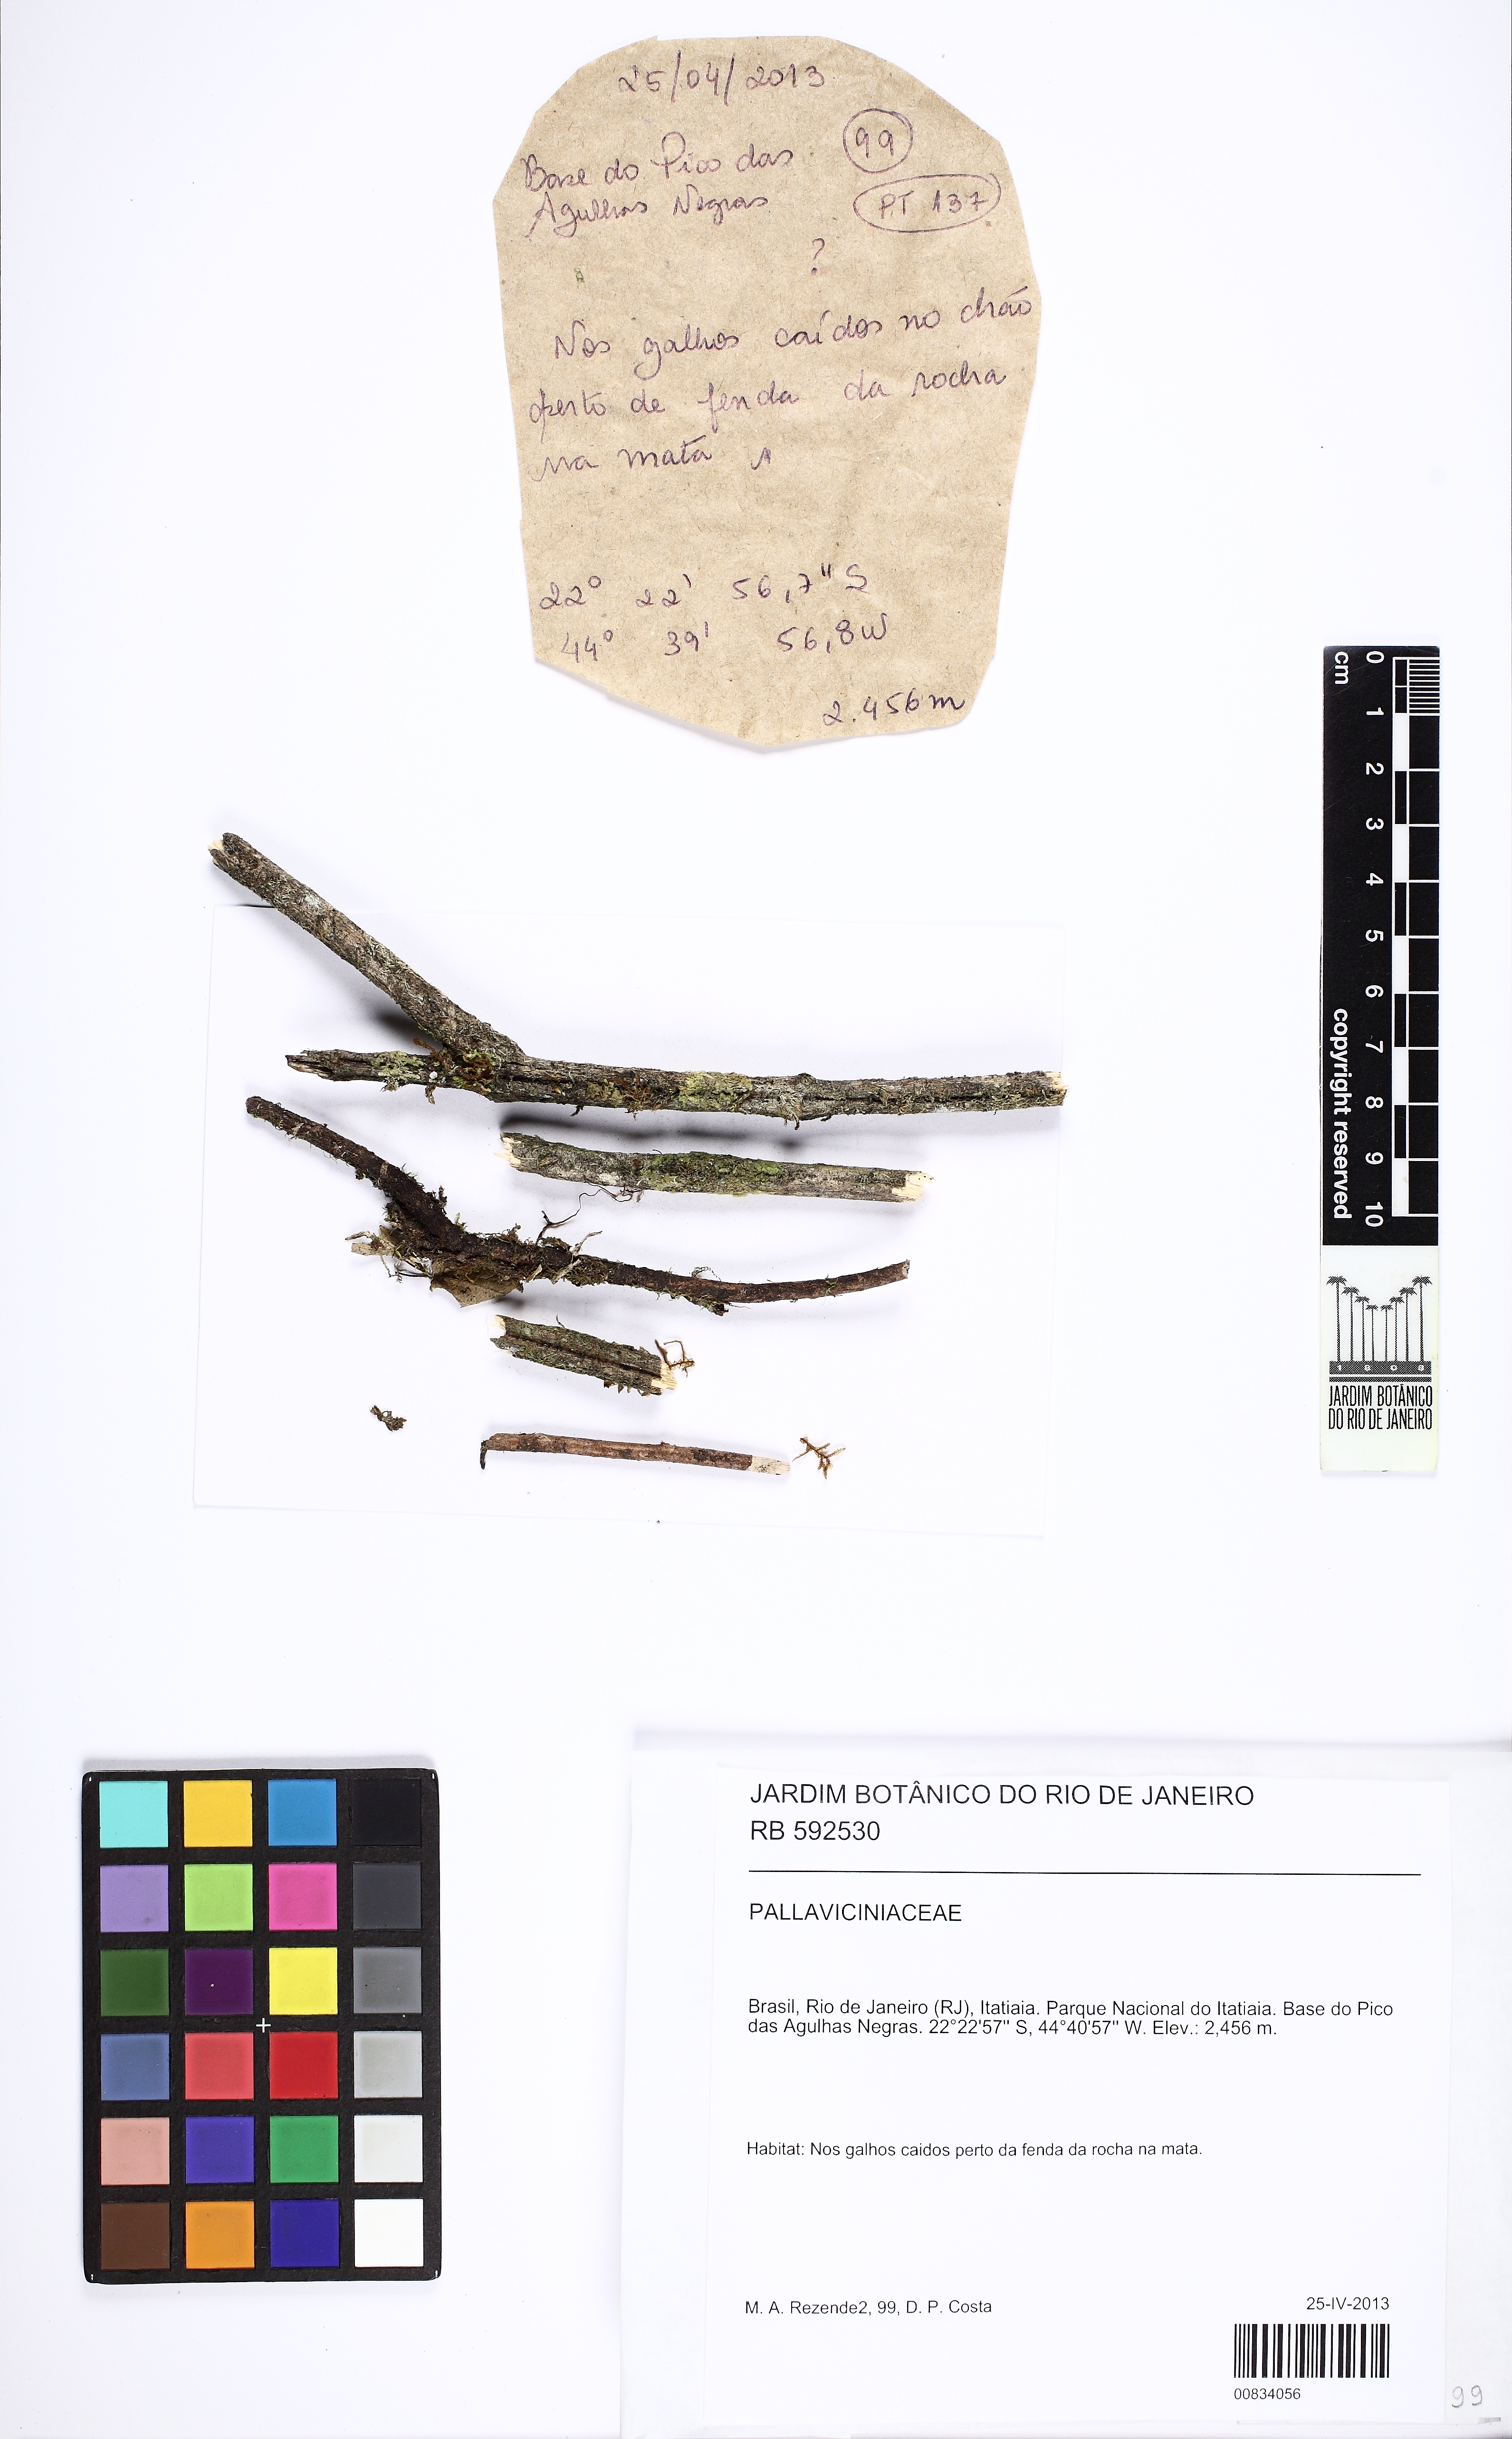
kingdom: Plantae
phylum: Marchantiophyta
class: Jungermanniopsida
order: Pallaviciniales
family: Pallaviciniaceae
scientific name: Pallaviciniaceae
